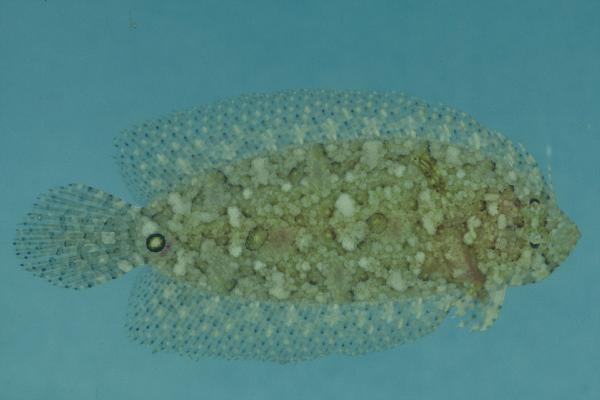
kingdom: Animalia
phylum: Chordata
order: Pleuronectiformes
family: Samaridae
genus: Samariscus
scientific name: Samariscus triocellatus
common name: Three-spot righteye flounder
